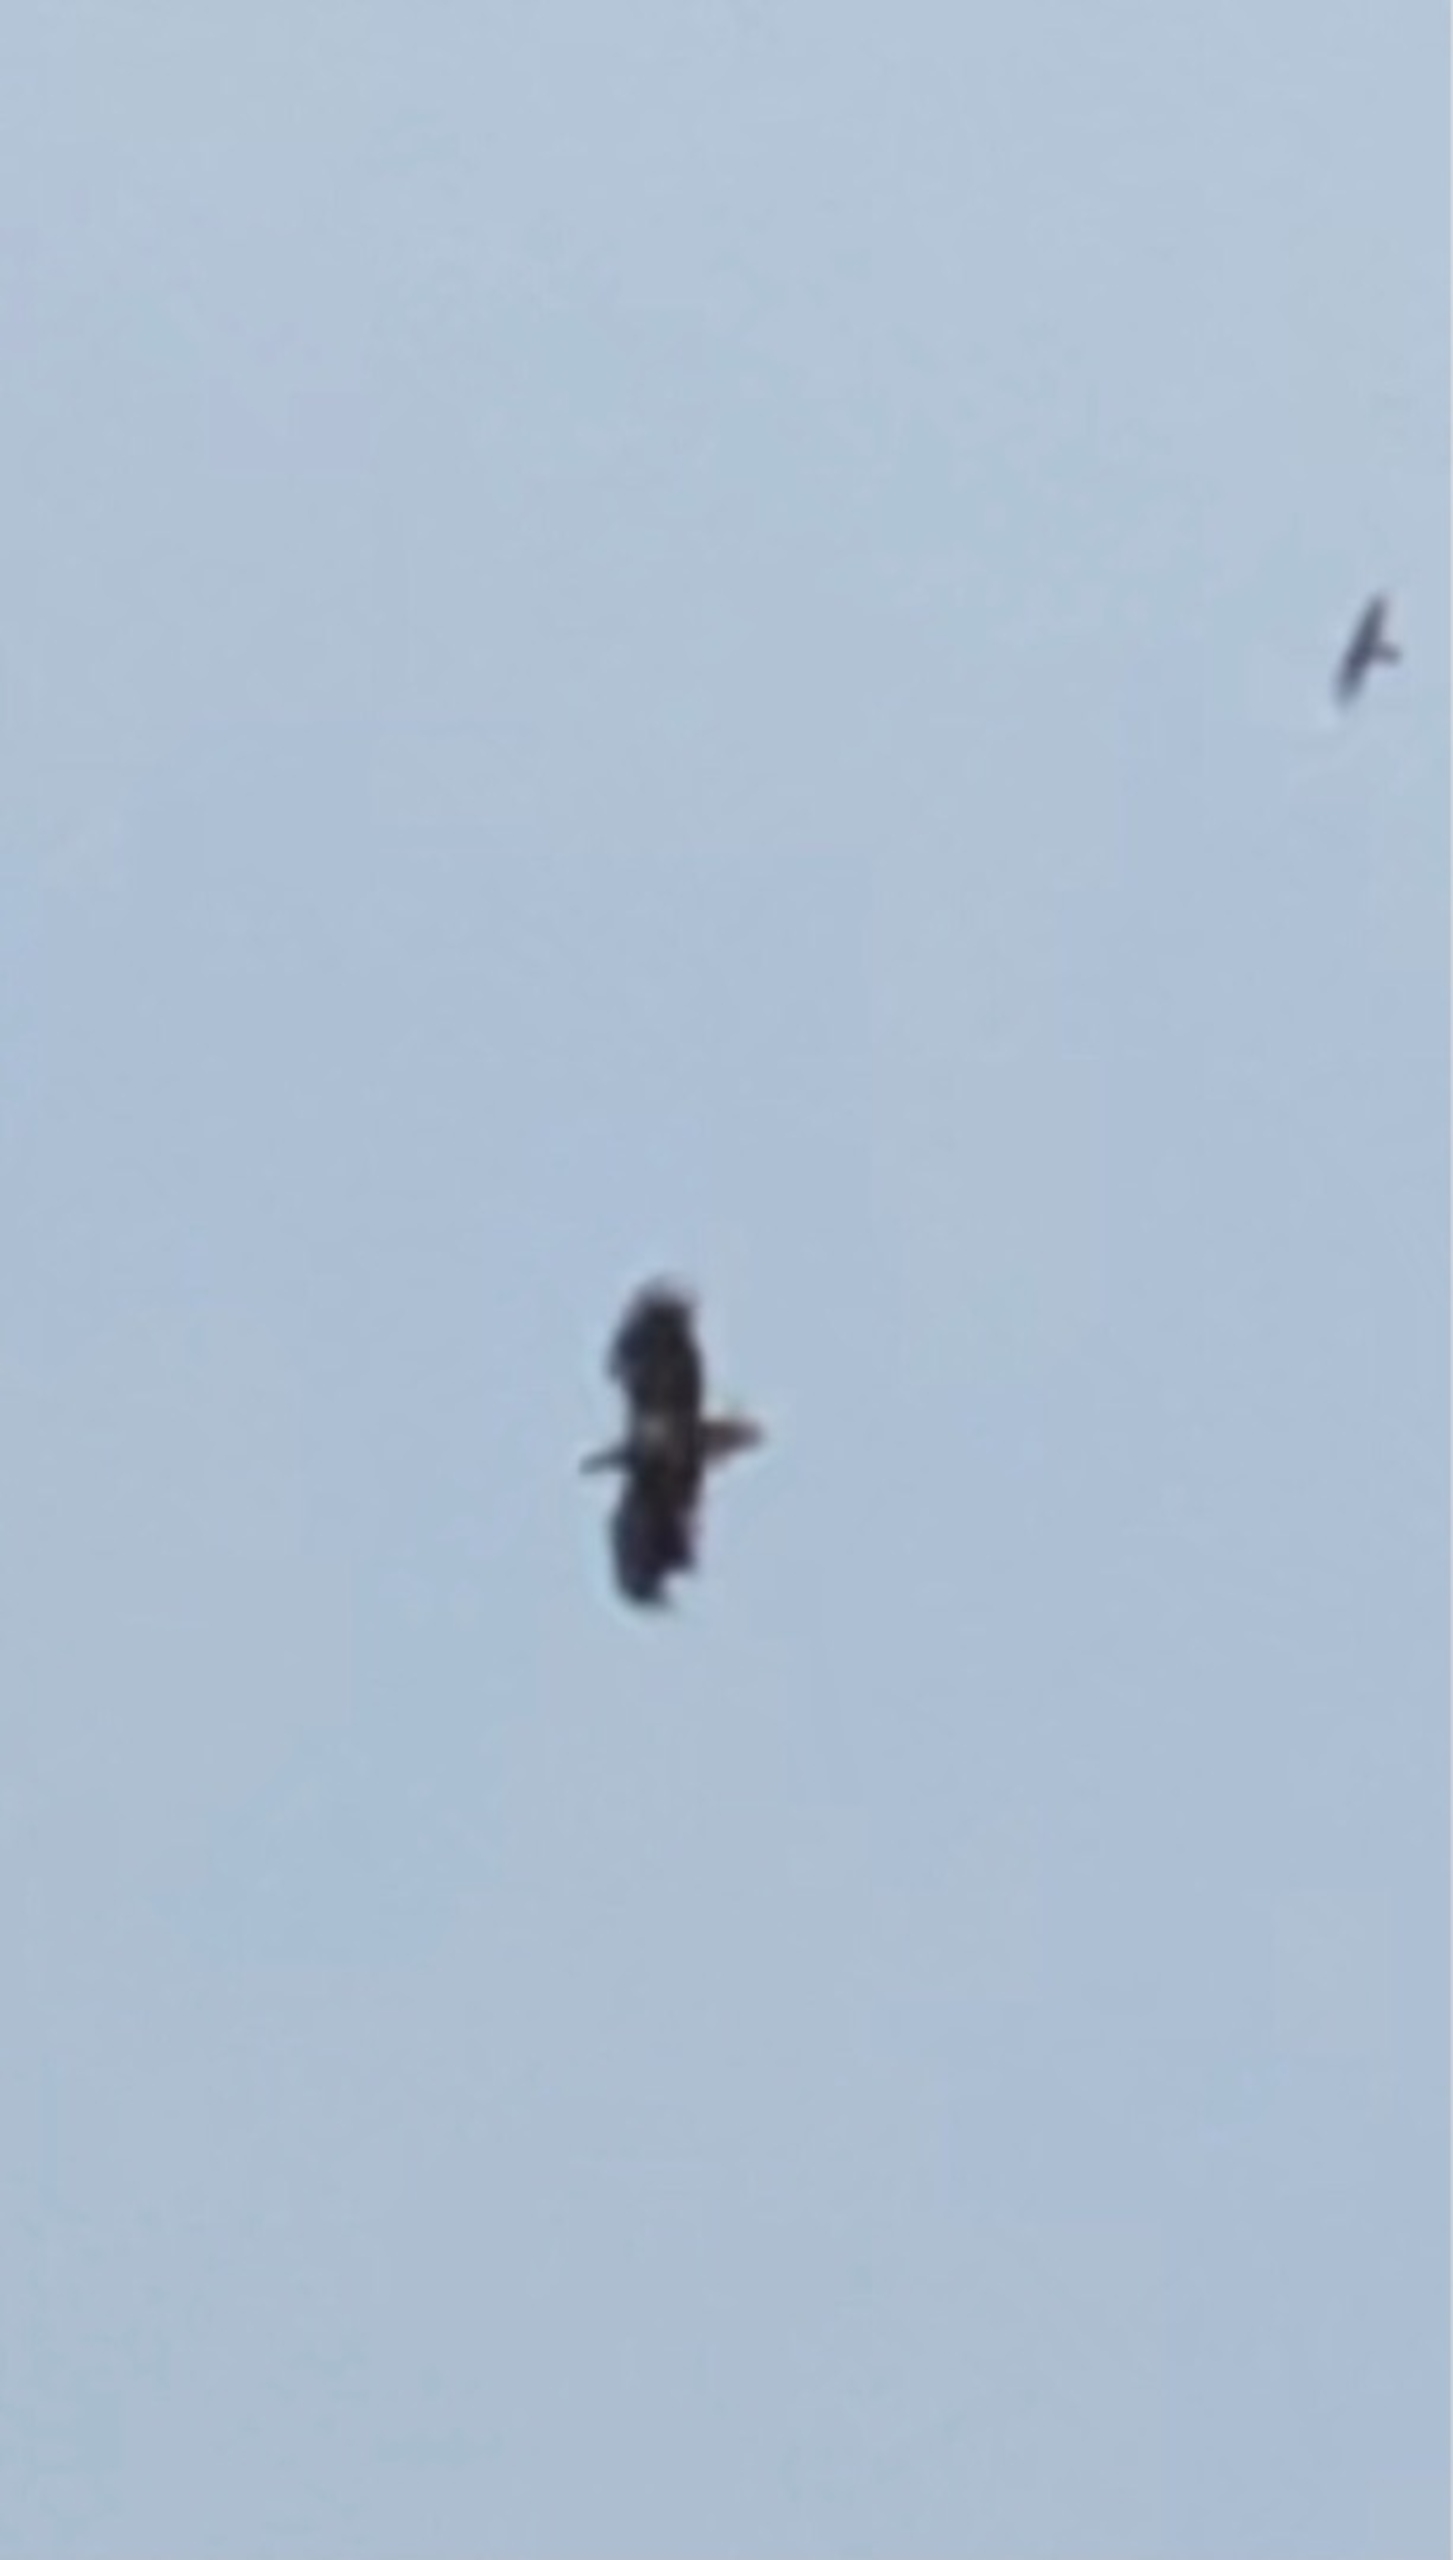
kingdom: Animalia
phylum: Chordata
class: Aves
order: Accipitriformes
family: Accipitridae
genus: Haliaeetus
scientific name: Haliaeetus albicilla
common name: Havørn
